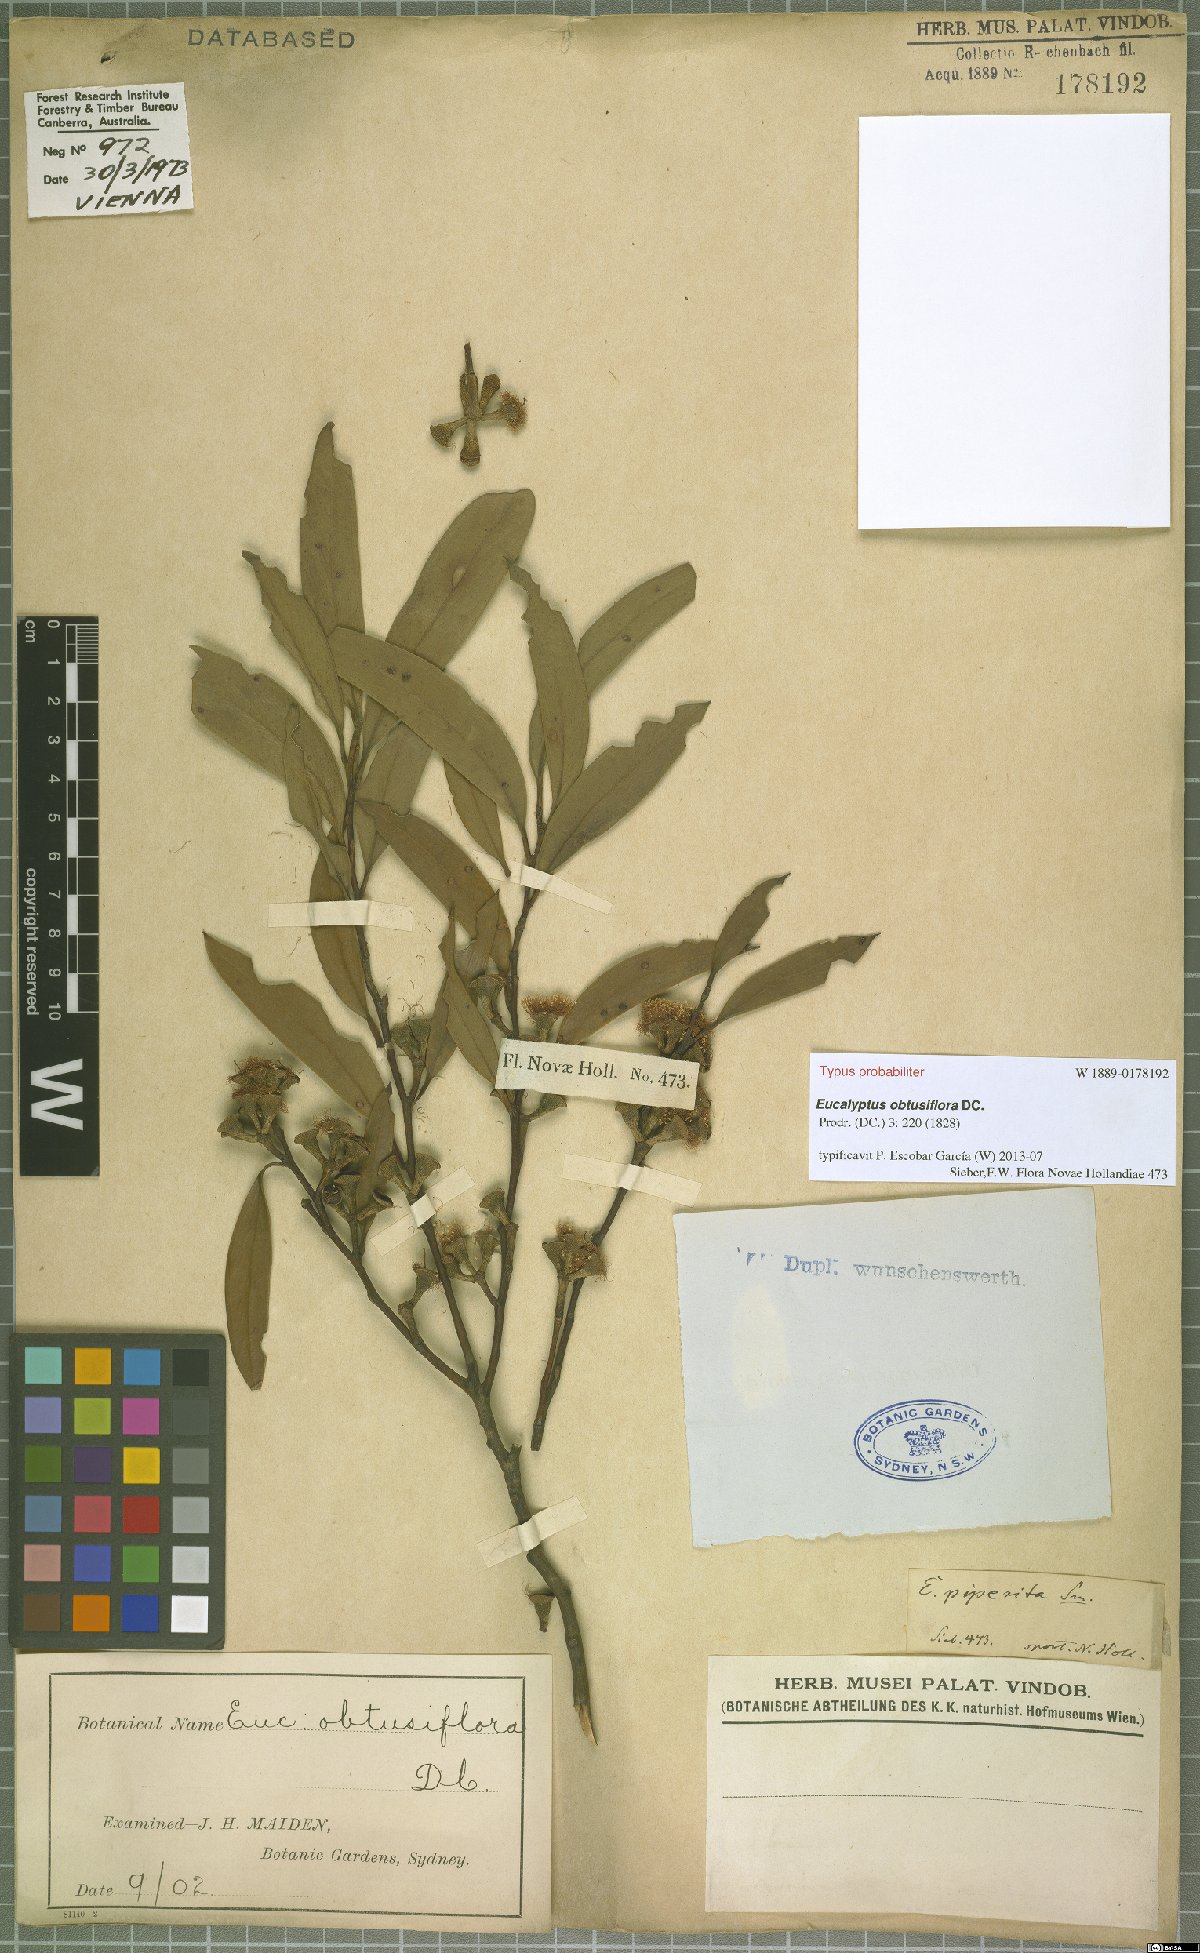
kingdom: Plantae
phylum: Tracheophyta
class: Magnoliopsida
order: Myrtales
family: Myrtaceae
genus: Eucalyptus
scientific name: Eucalyptus obtusiflora
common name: Dongara-mallee
